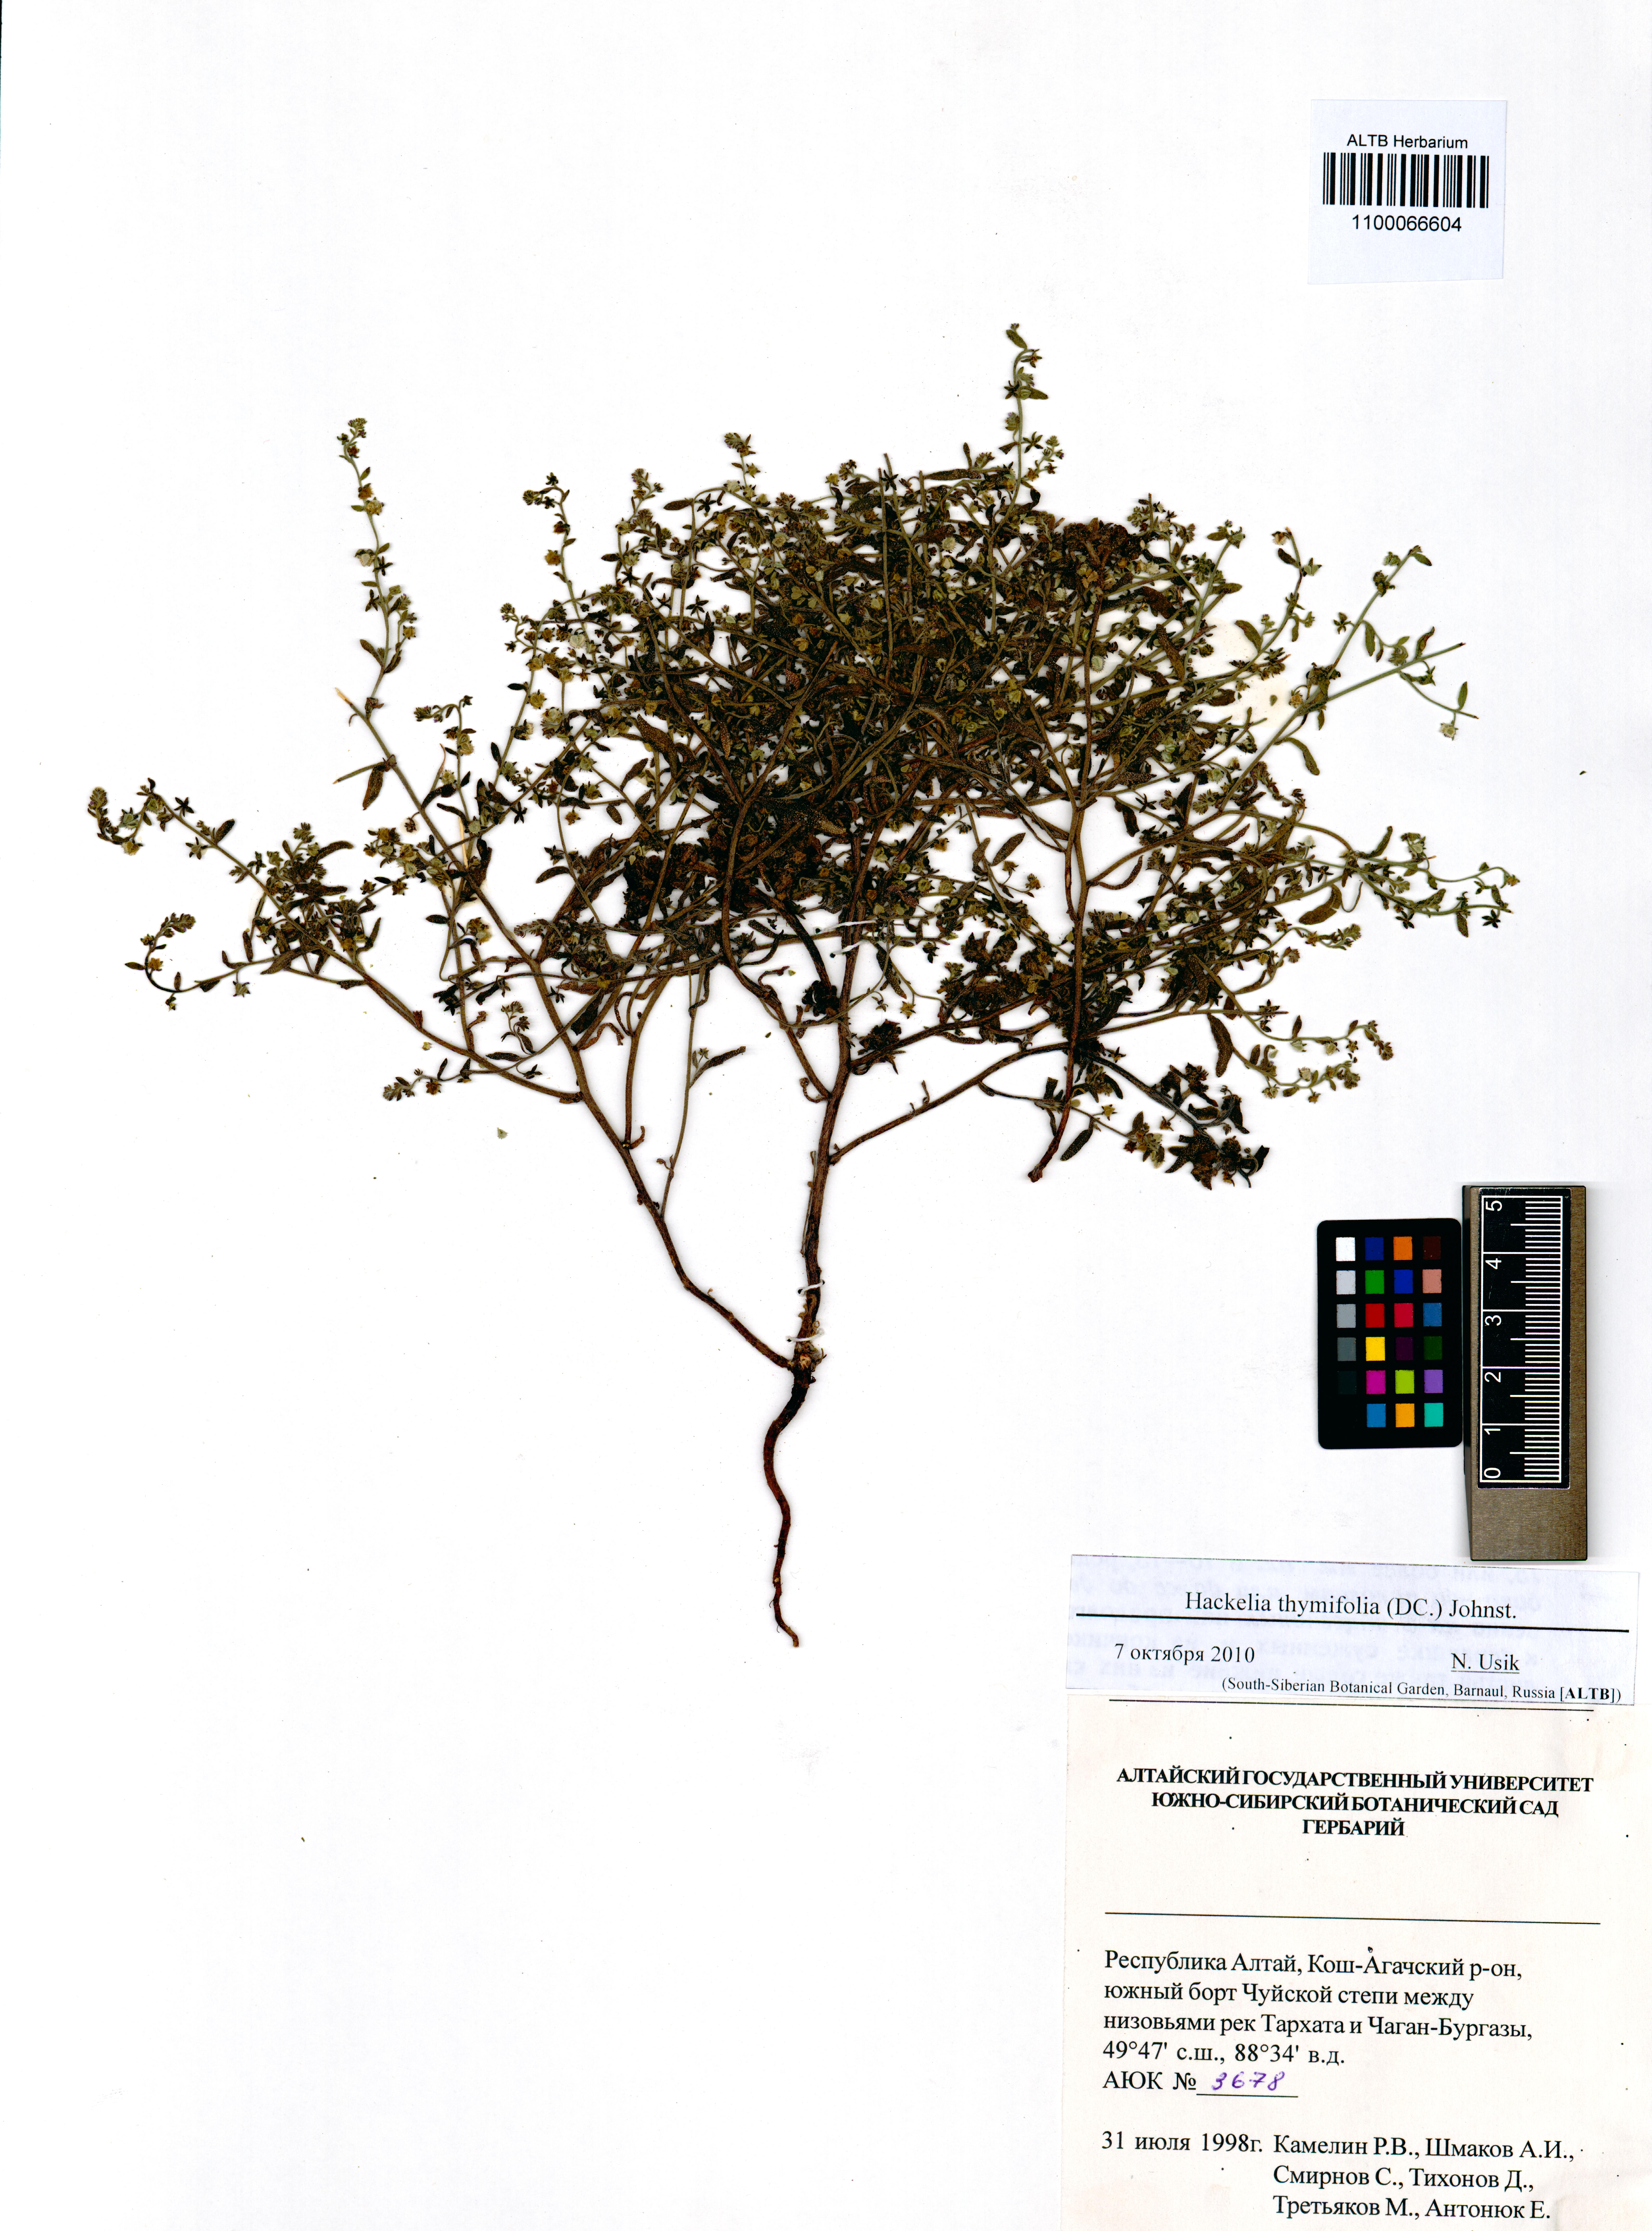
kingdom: Plantae
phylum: Tracheophyta
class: Magnoliopsida
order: Boraginales
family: Boraginaceae
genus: Eritrichium
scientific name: Eritrichium thymifolium
